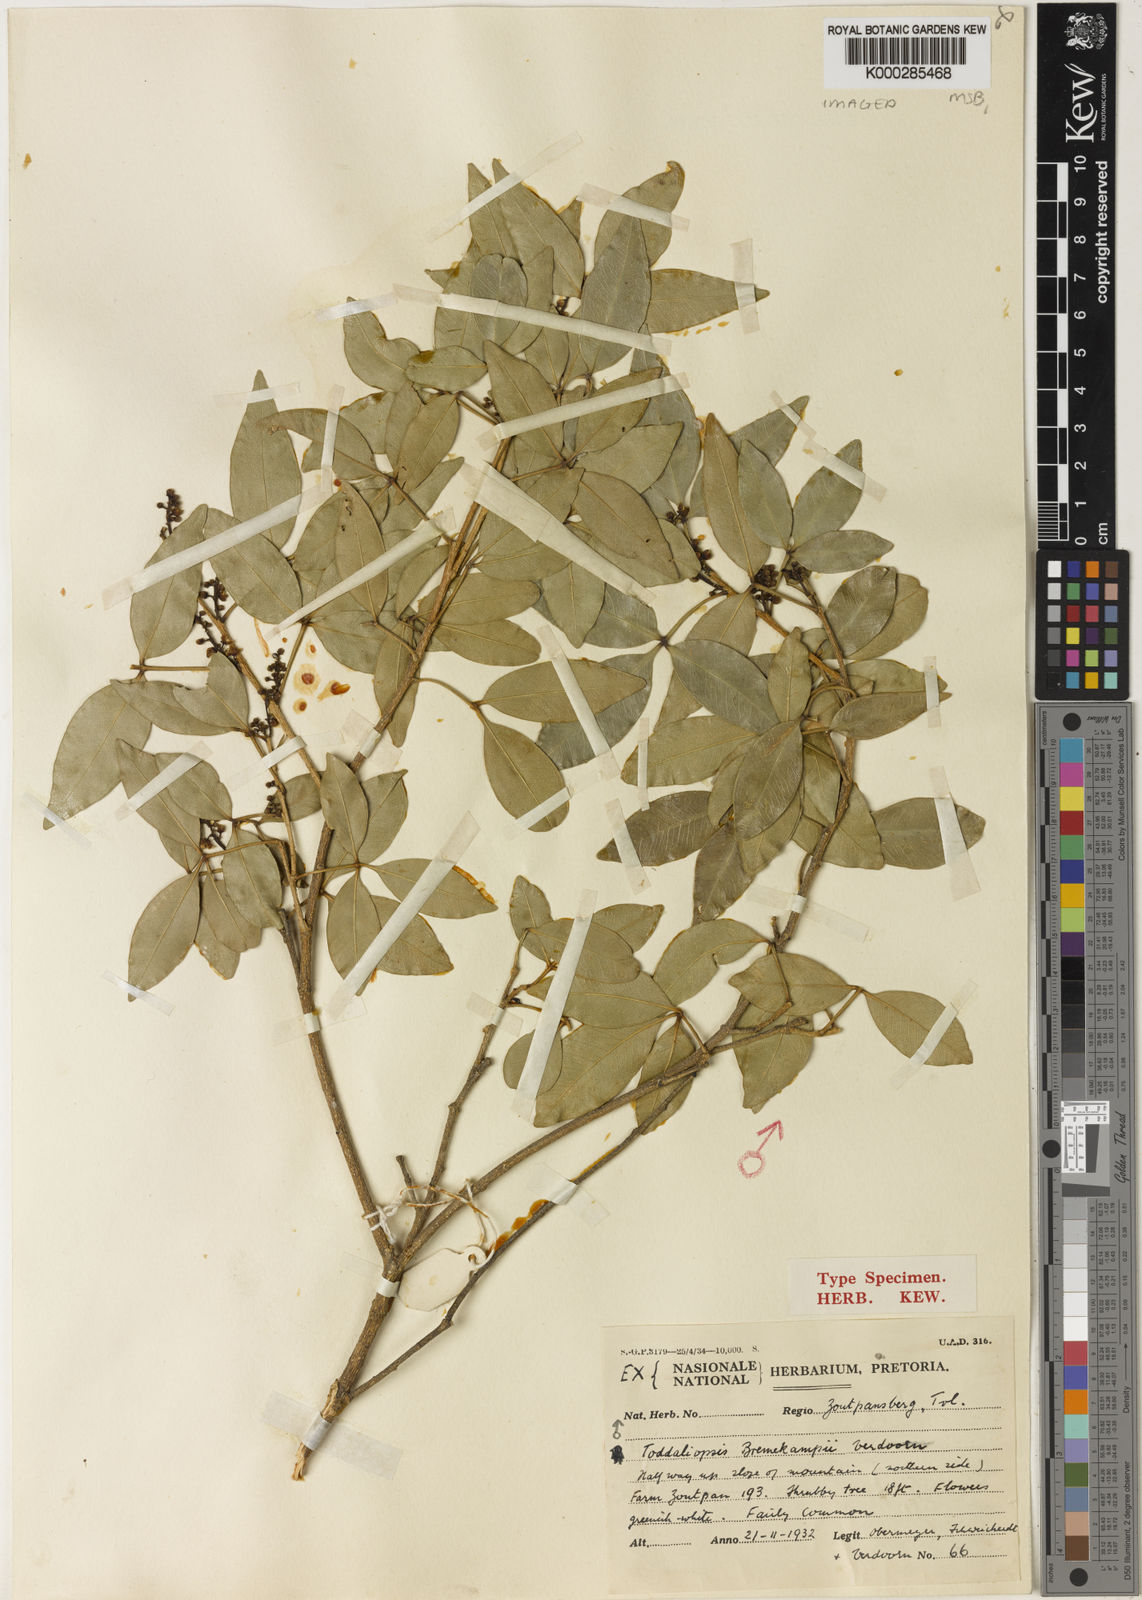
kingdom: Plantae
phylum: Tracheophyta
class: Magnoliopsida
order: Sapindales
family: Rutaceae
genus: Vepris
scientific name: Vepris bremekampii
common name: Wild mandarin
